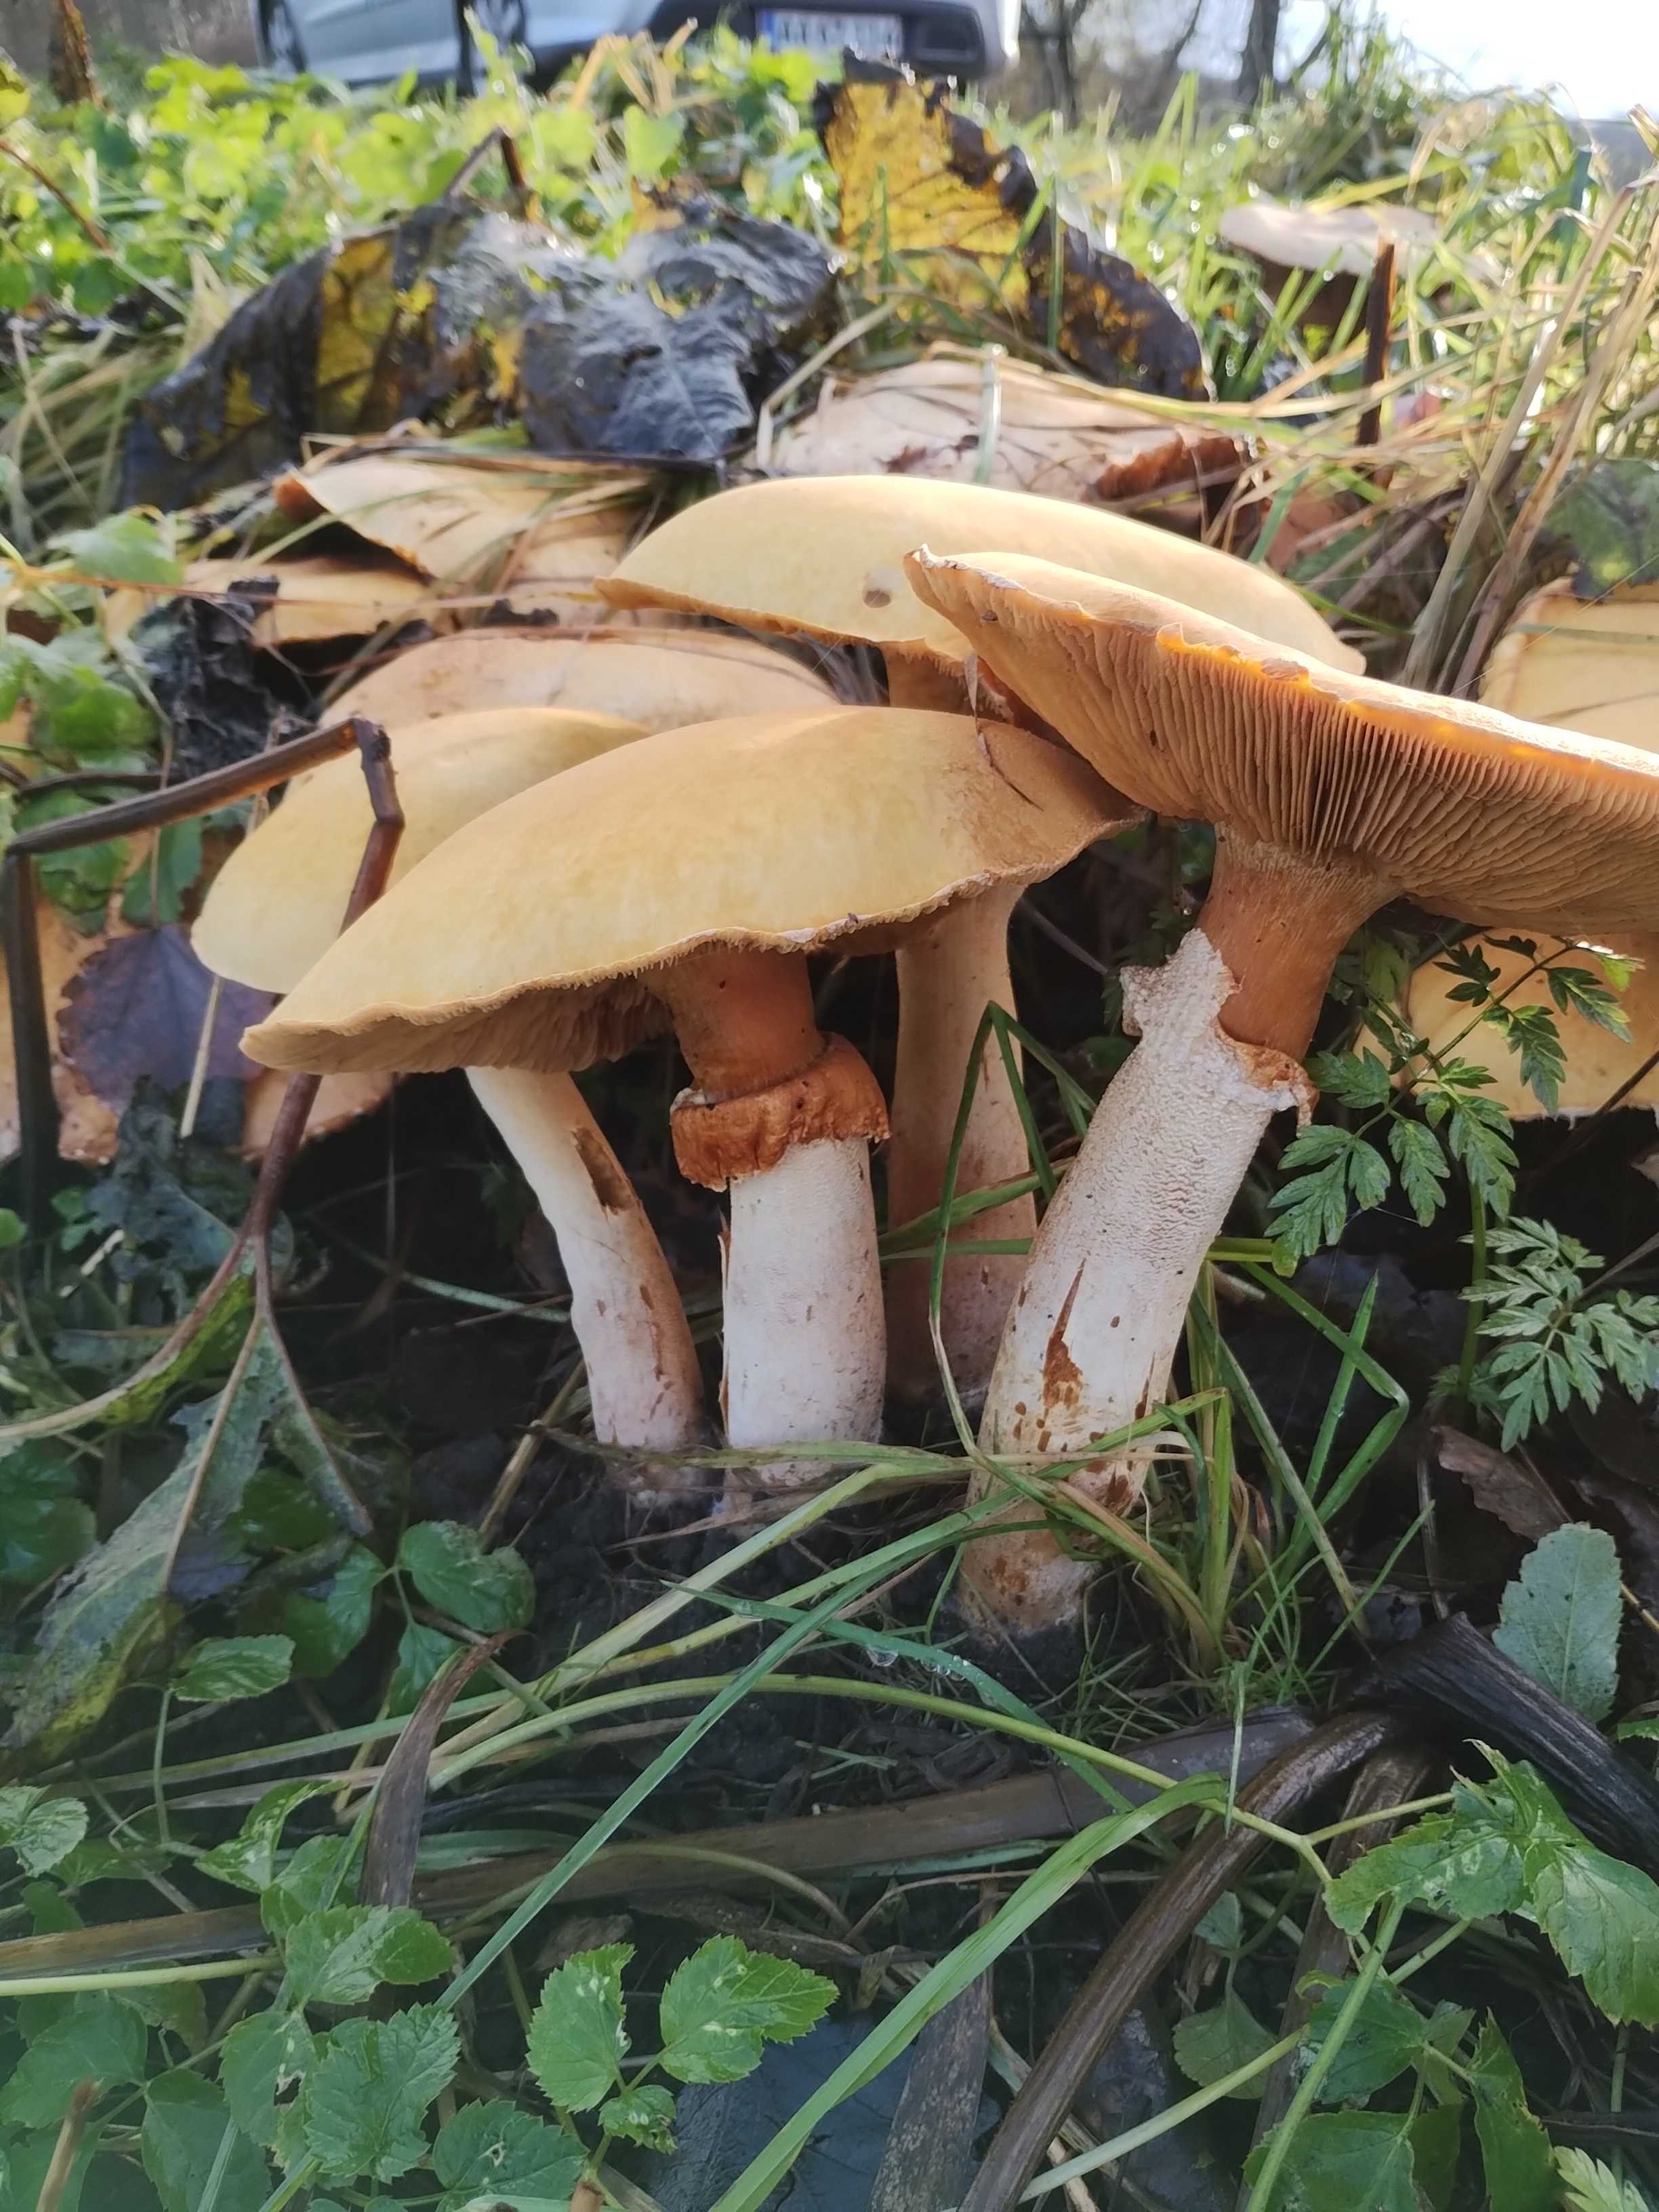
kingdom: Fungi
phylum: Basidiomycota
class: Agaricomycetes
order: Agaricales
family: Tricholomataceae
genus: Phaeolepiota
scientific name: Phaeolepiota aurea
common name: gyldenhat
